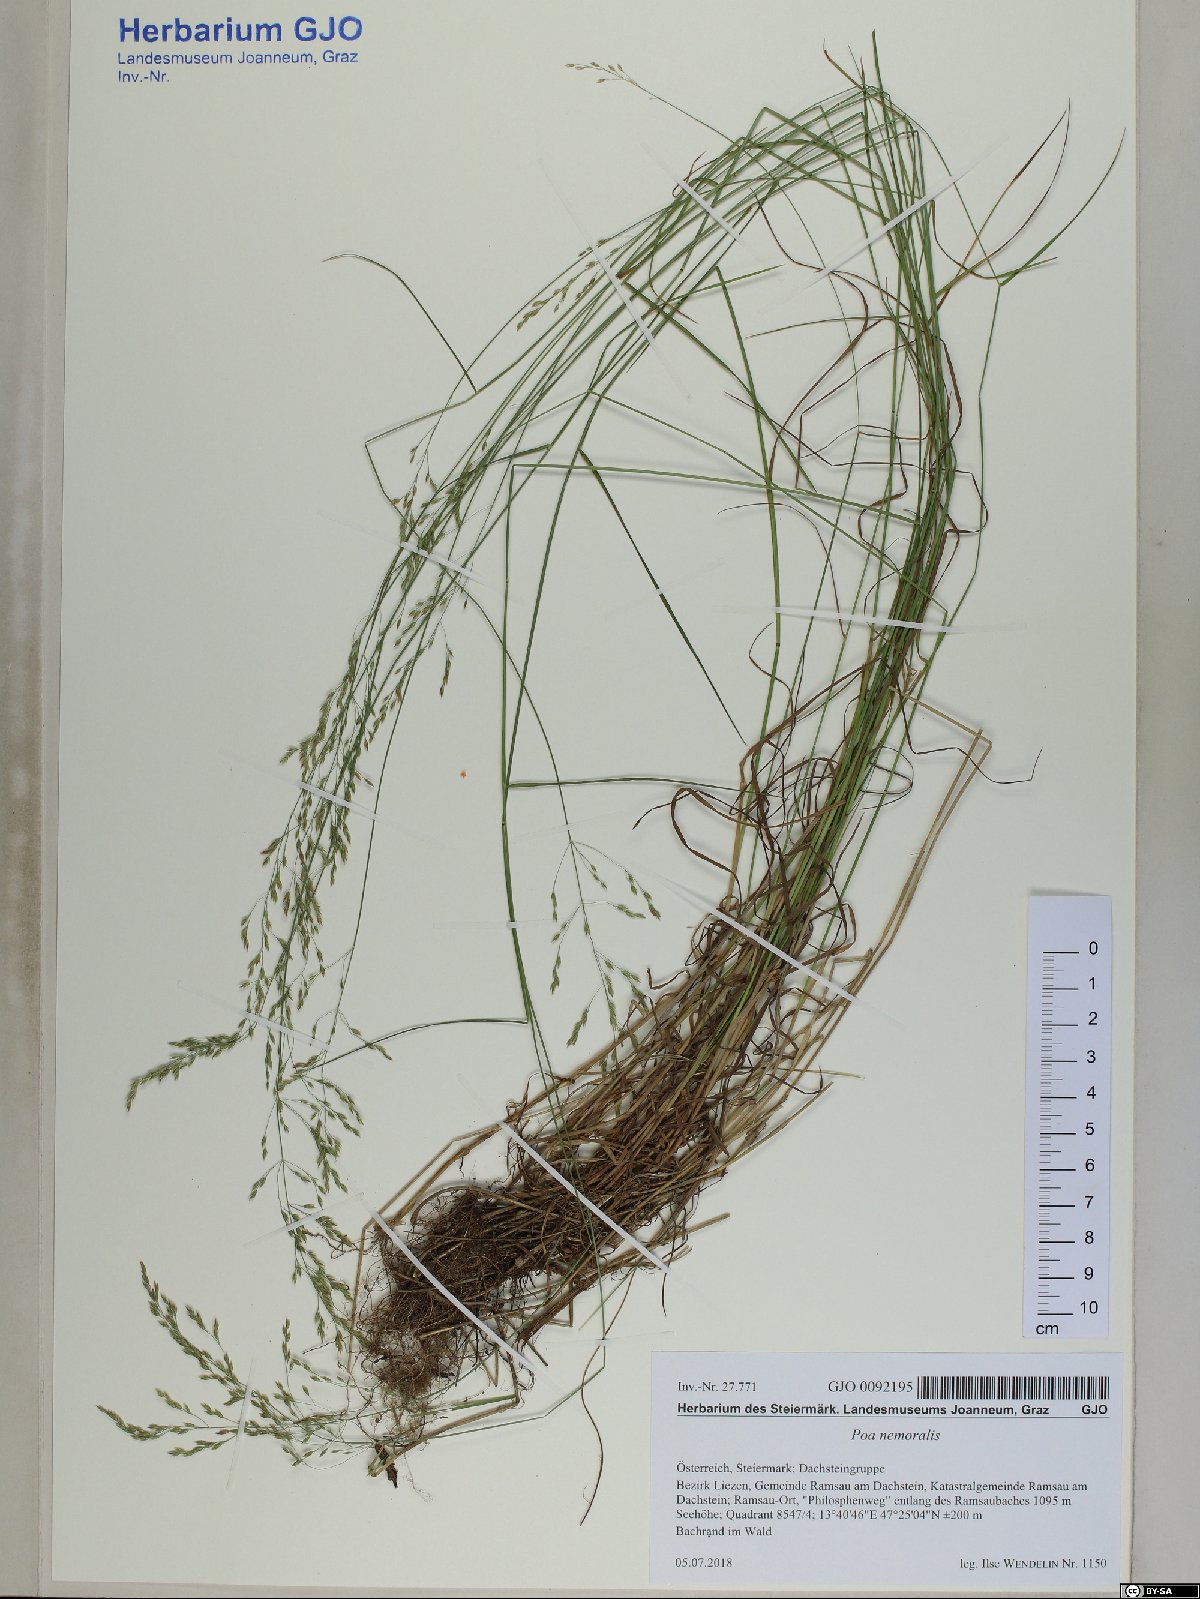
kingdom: Plantae
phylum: Tracheophyta
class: Liliopsida
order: Poales
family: Poaceae
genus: Poa
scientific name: Poa nemoralis
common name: Wood bluegrass
